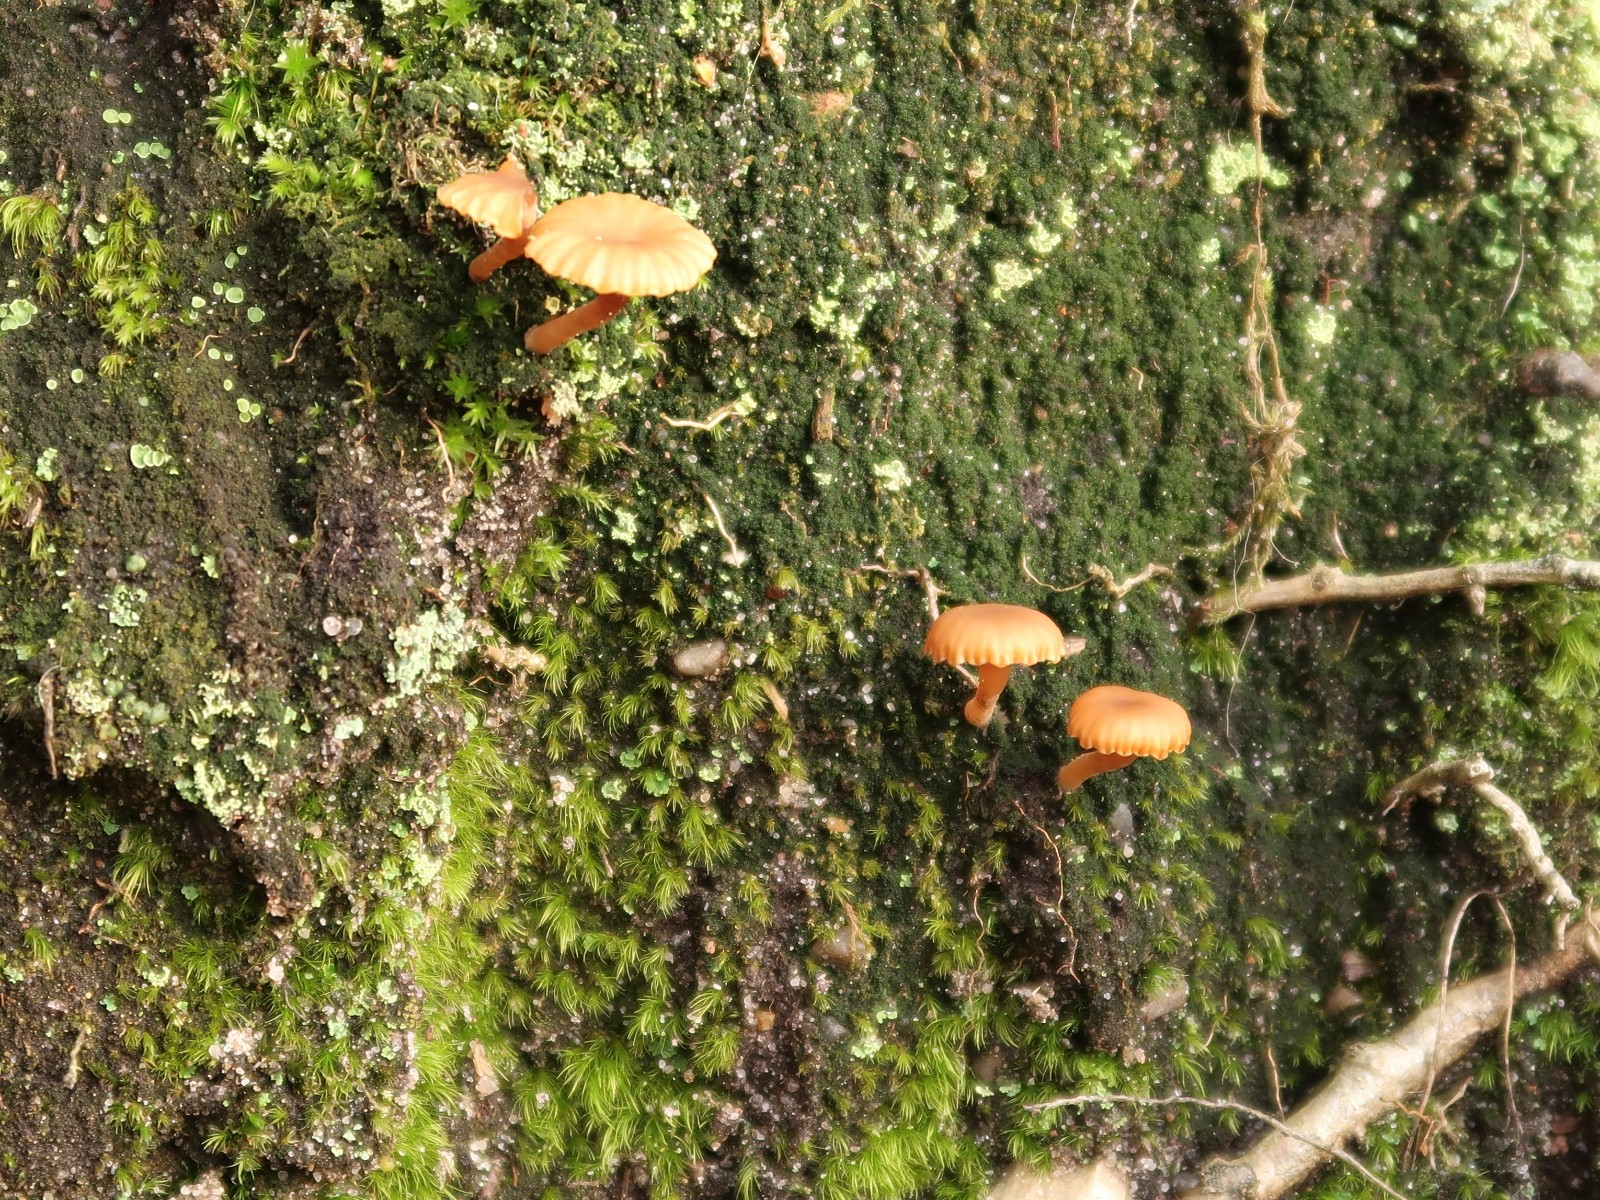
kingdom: Fungi
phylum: Basidiomycota
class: Agaricomycetes
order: Agaricales
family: Hygrophoraceae
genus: Lichenomphalia
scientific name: Lichenomphalia umbellifera
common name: tørve-lavhat
